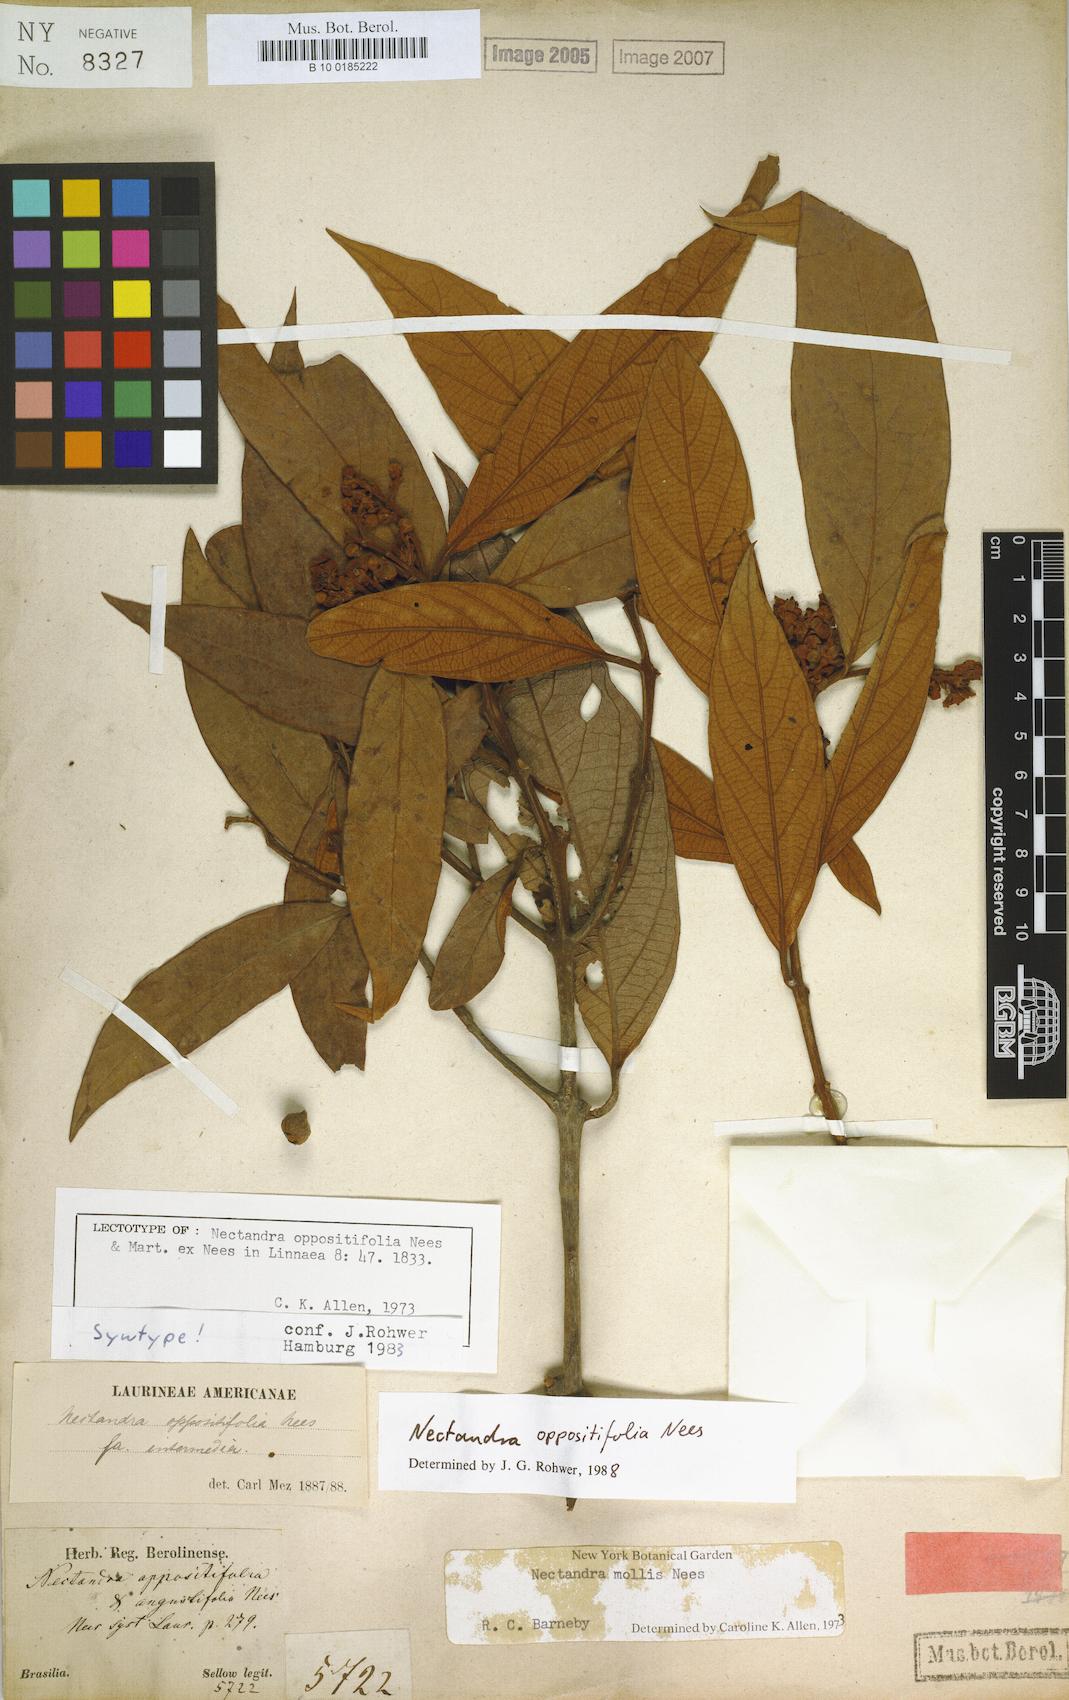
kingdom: Plantae
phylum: Tracheophyta
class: Magnoliopsida
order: Laurales
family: Lauraceae
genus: Nectandra
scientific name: Nectandra oppositifolia
